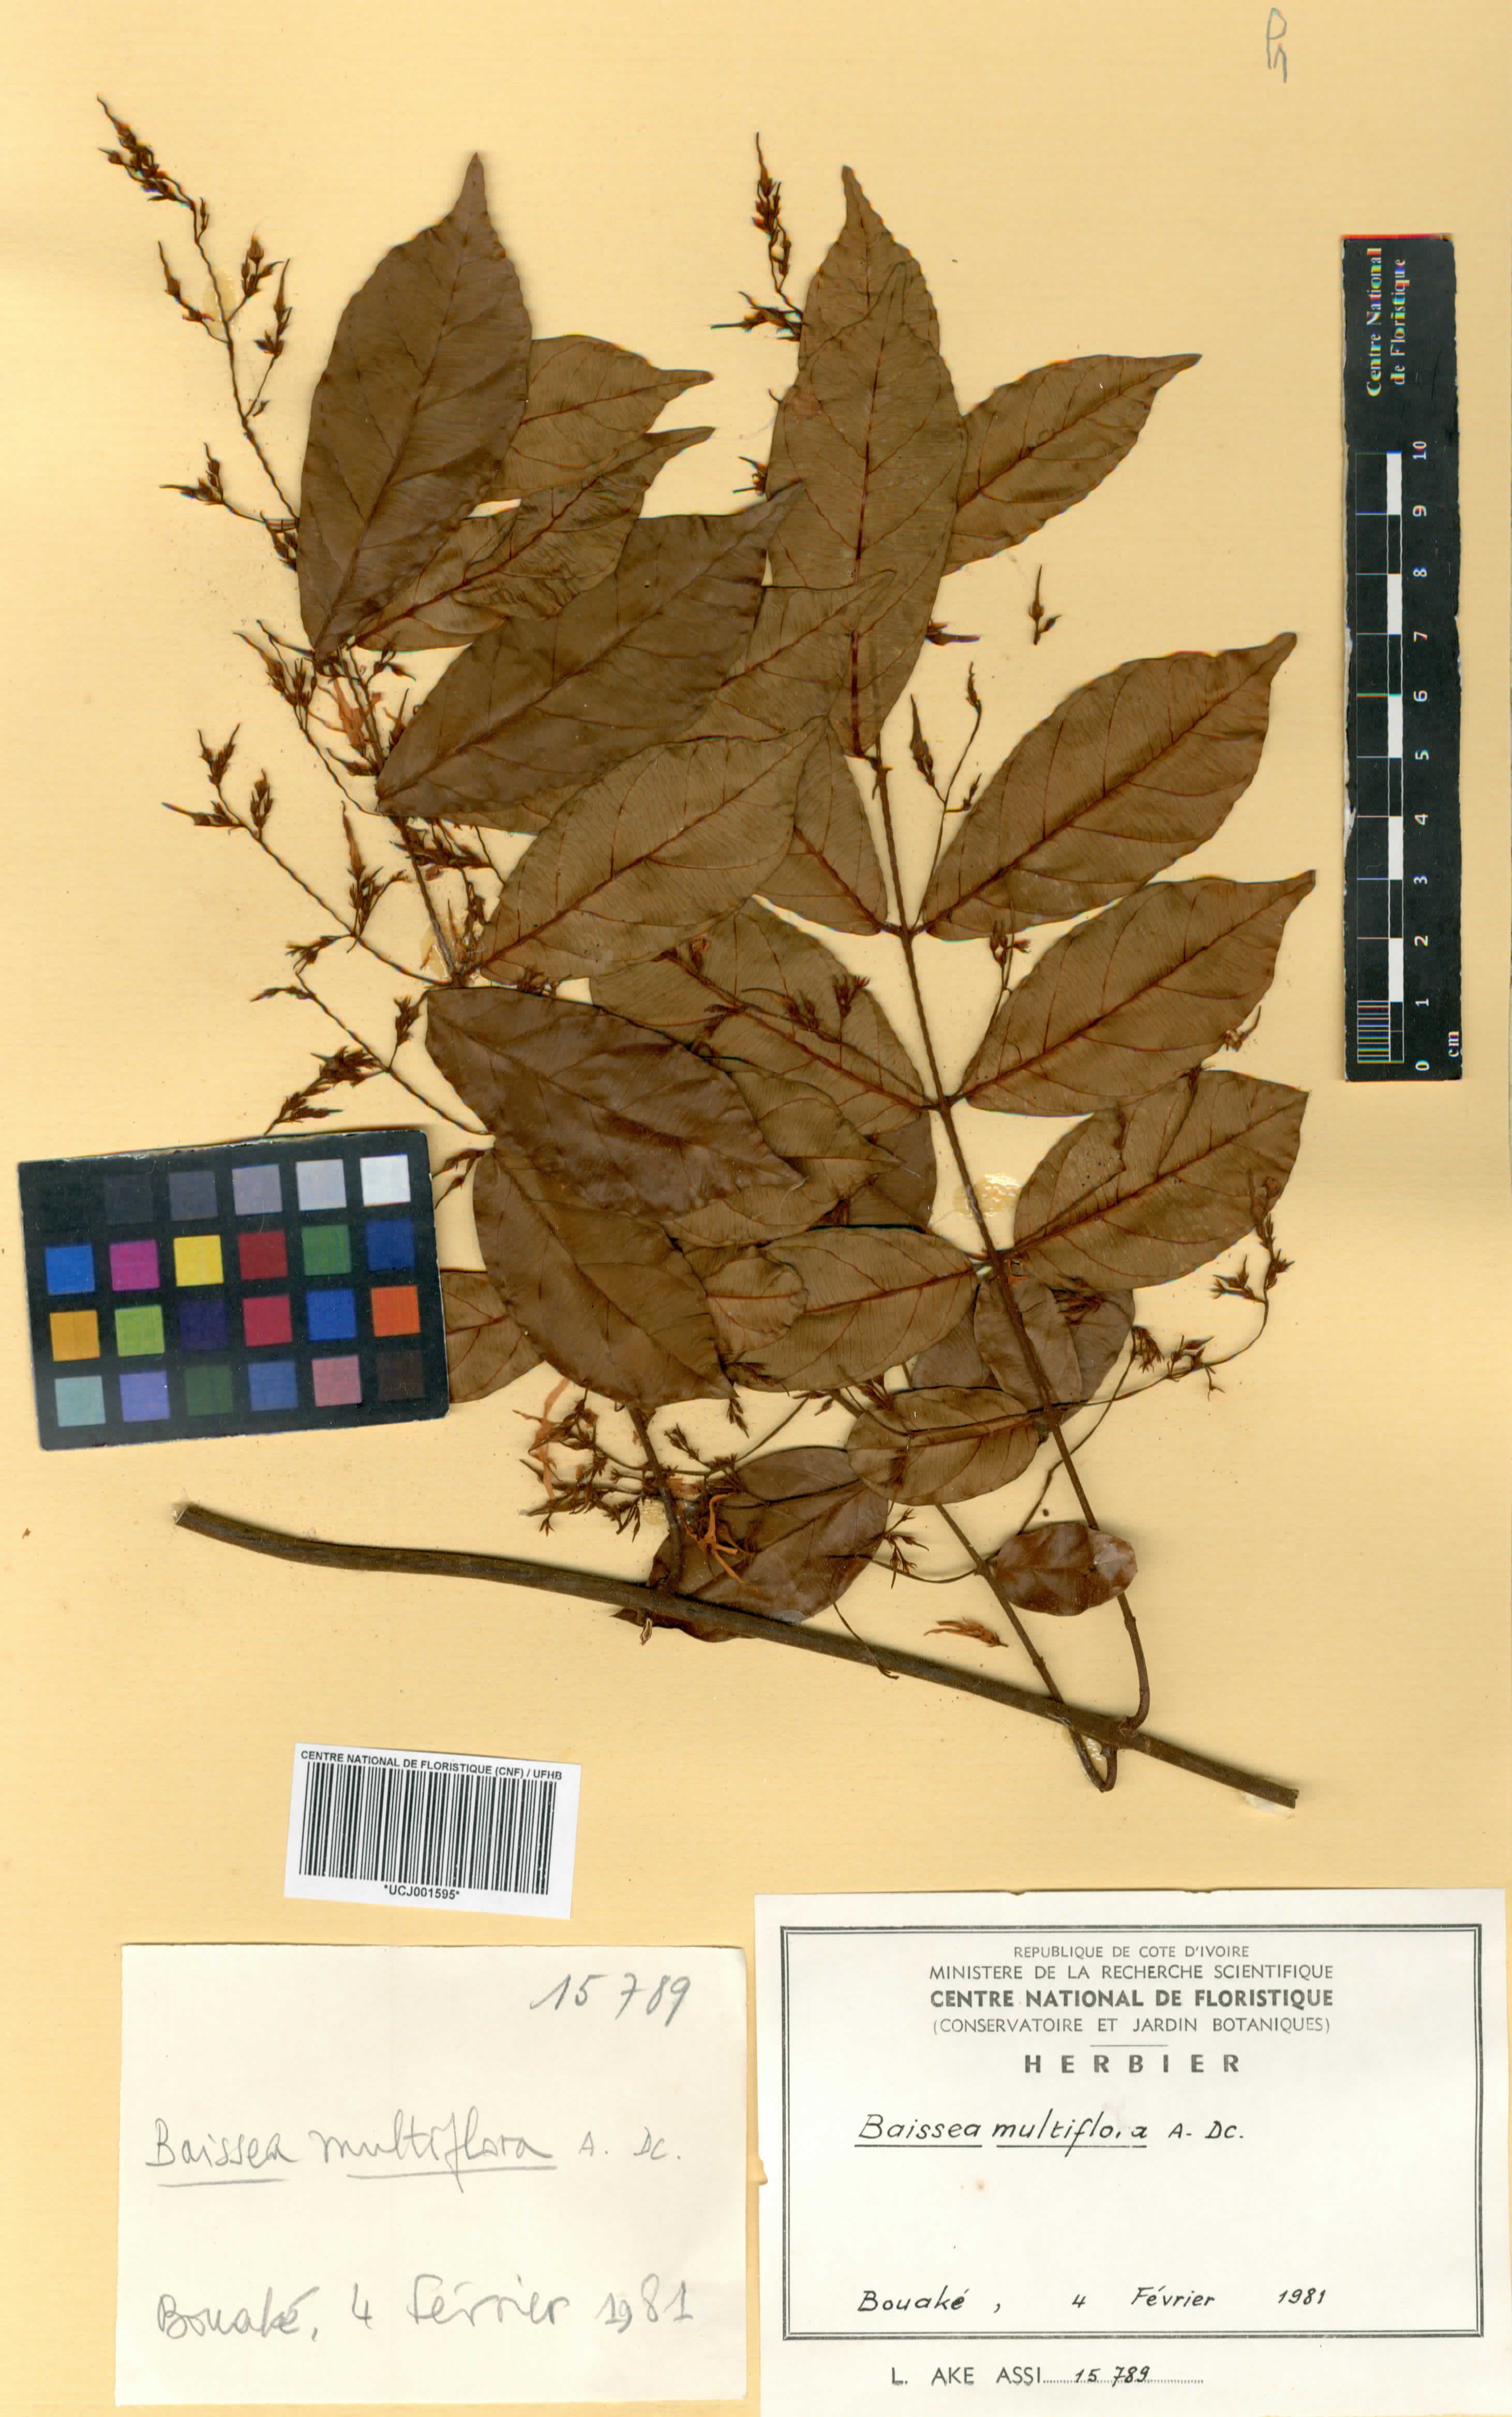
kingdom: Plantae
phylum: Tracheophyta
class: Magnoliopsida
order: Gentianales
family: Apocynaceae
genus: Baissea
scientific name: Baissea multiflora
